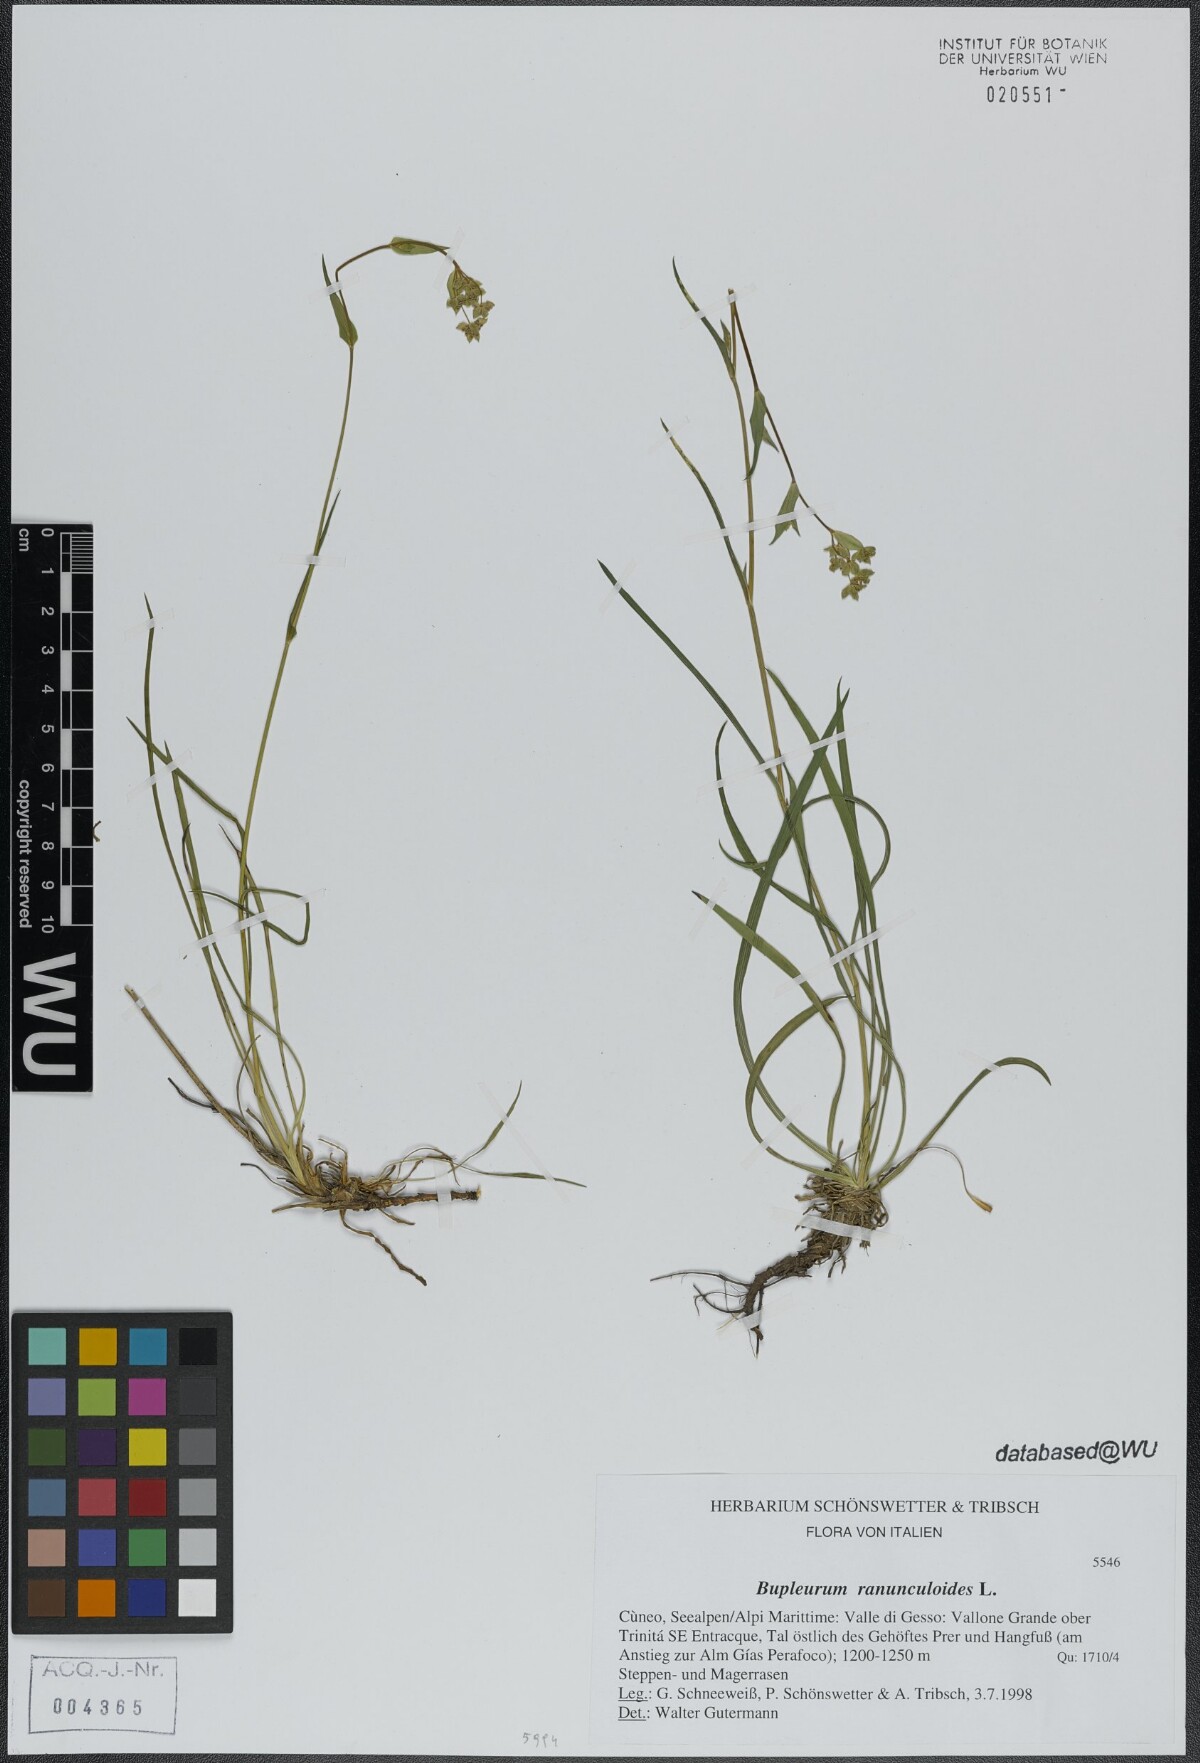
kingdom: Plantae
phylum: Tracheophyta
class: Magnoliopsida
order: Apiales
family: Apiaceae
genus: Bupleurum
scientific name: Bupleurum ranunculoides
